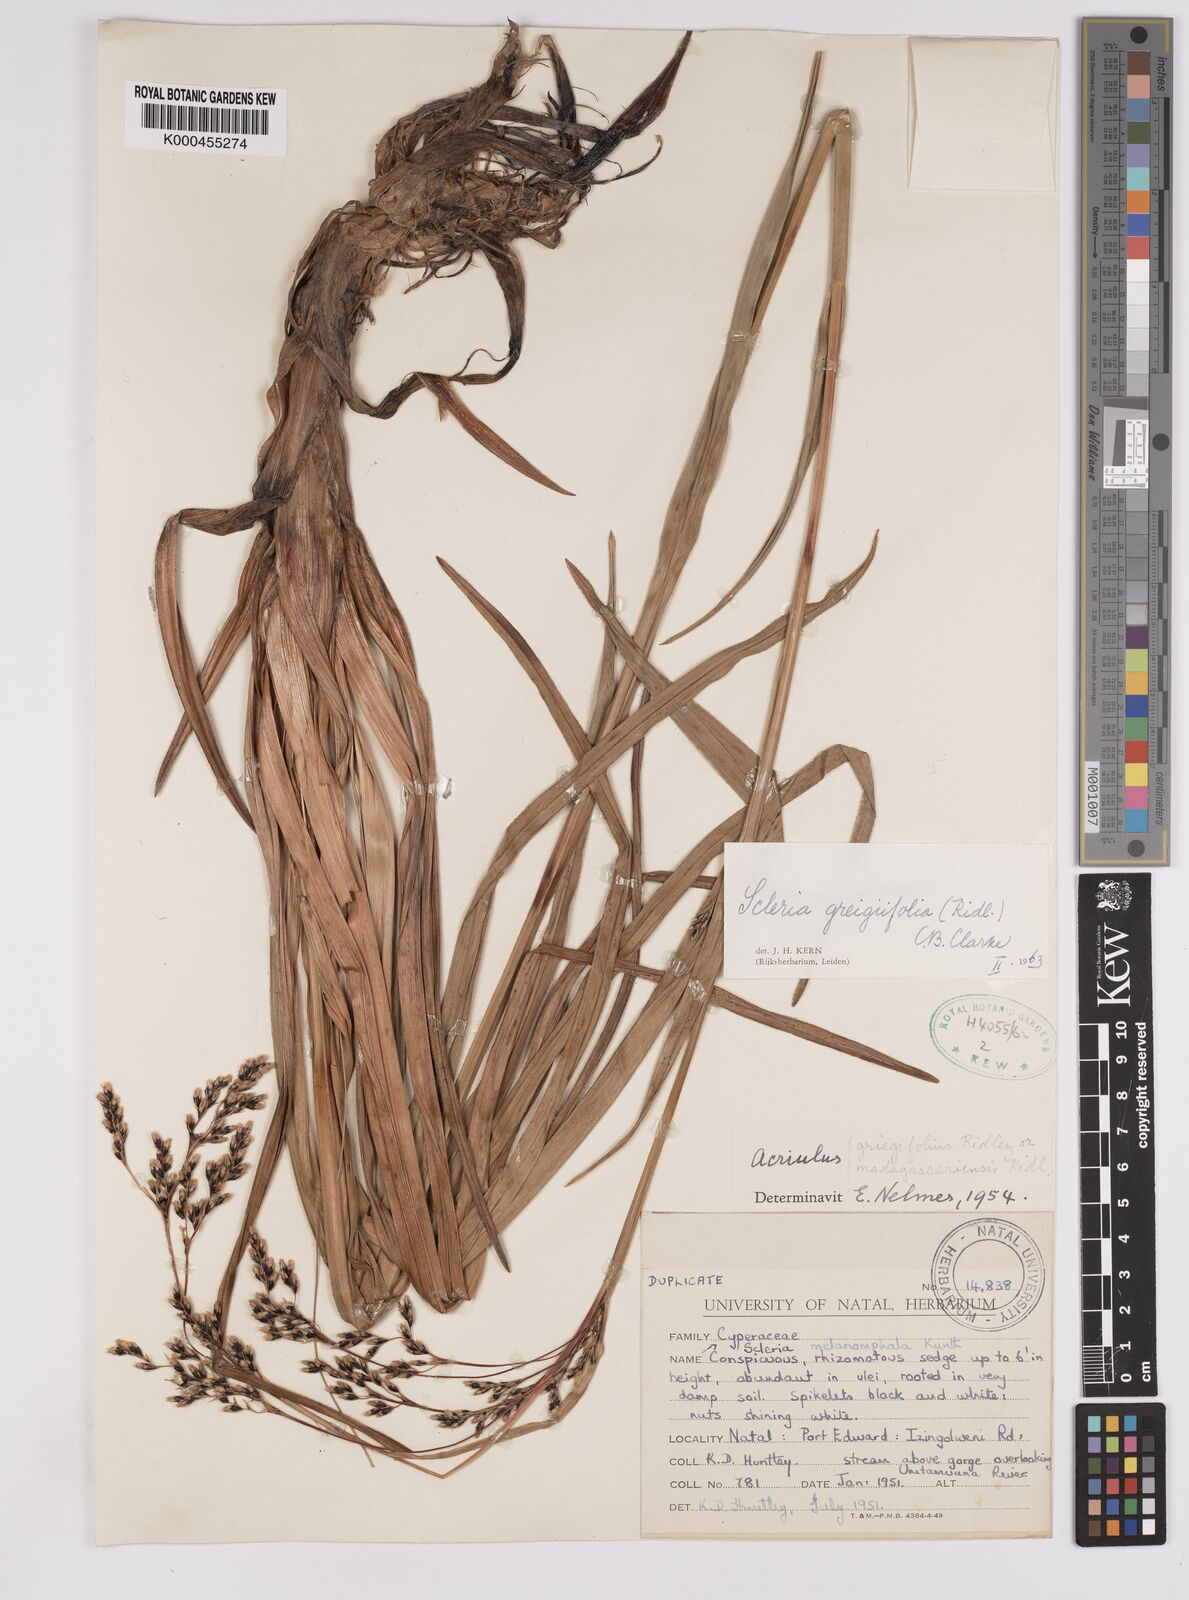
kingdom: Plantae
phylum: Tracheophyta
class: Liliopsida
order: Poales
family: Cyperaceae
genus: Scleria
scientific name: Scleria greigiifolia
